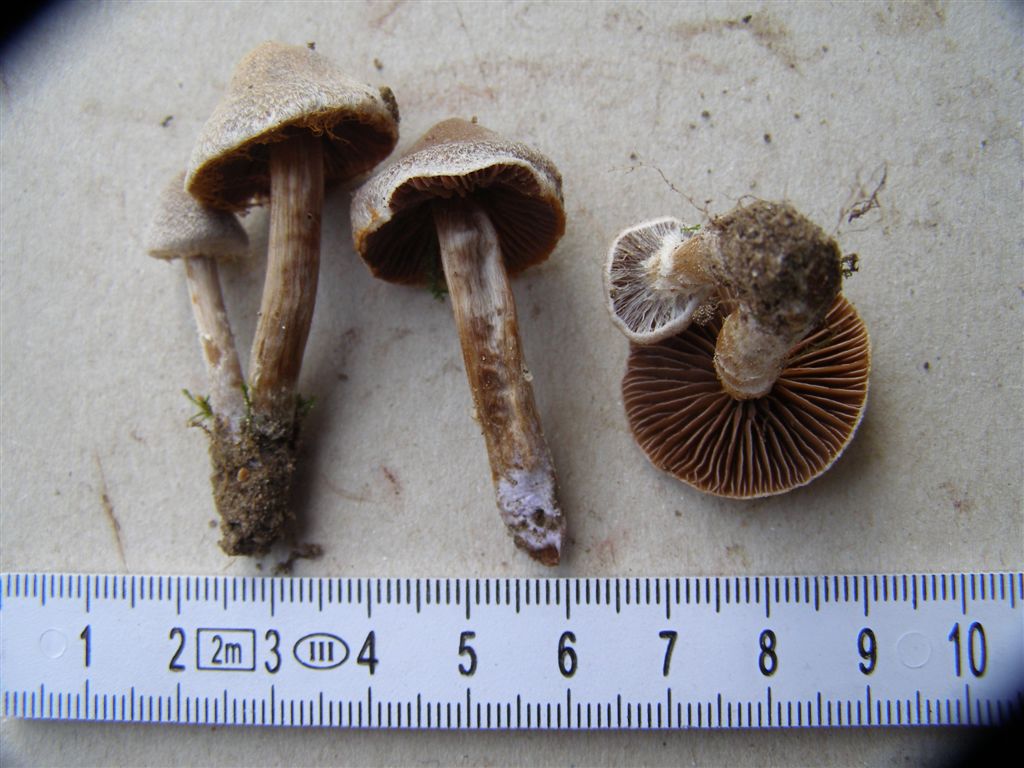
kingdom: Fungi
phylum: Basidiomycota
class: Agaricomycetes
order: Agaricales
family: Cortinariaceae
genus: Cortinarius
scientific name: Cortinarius
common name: pelargonie-slørhat
